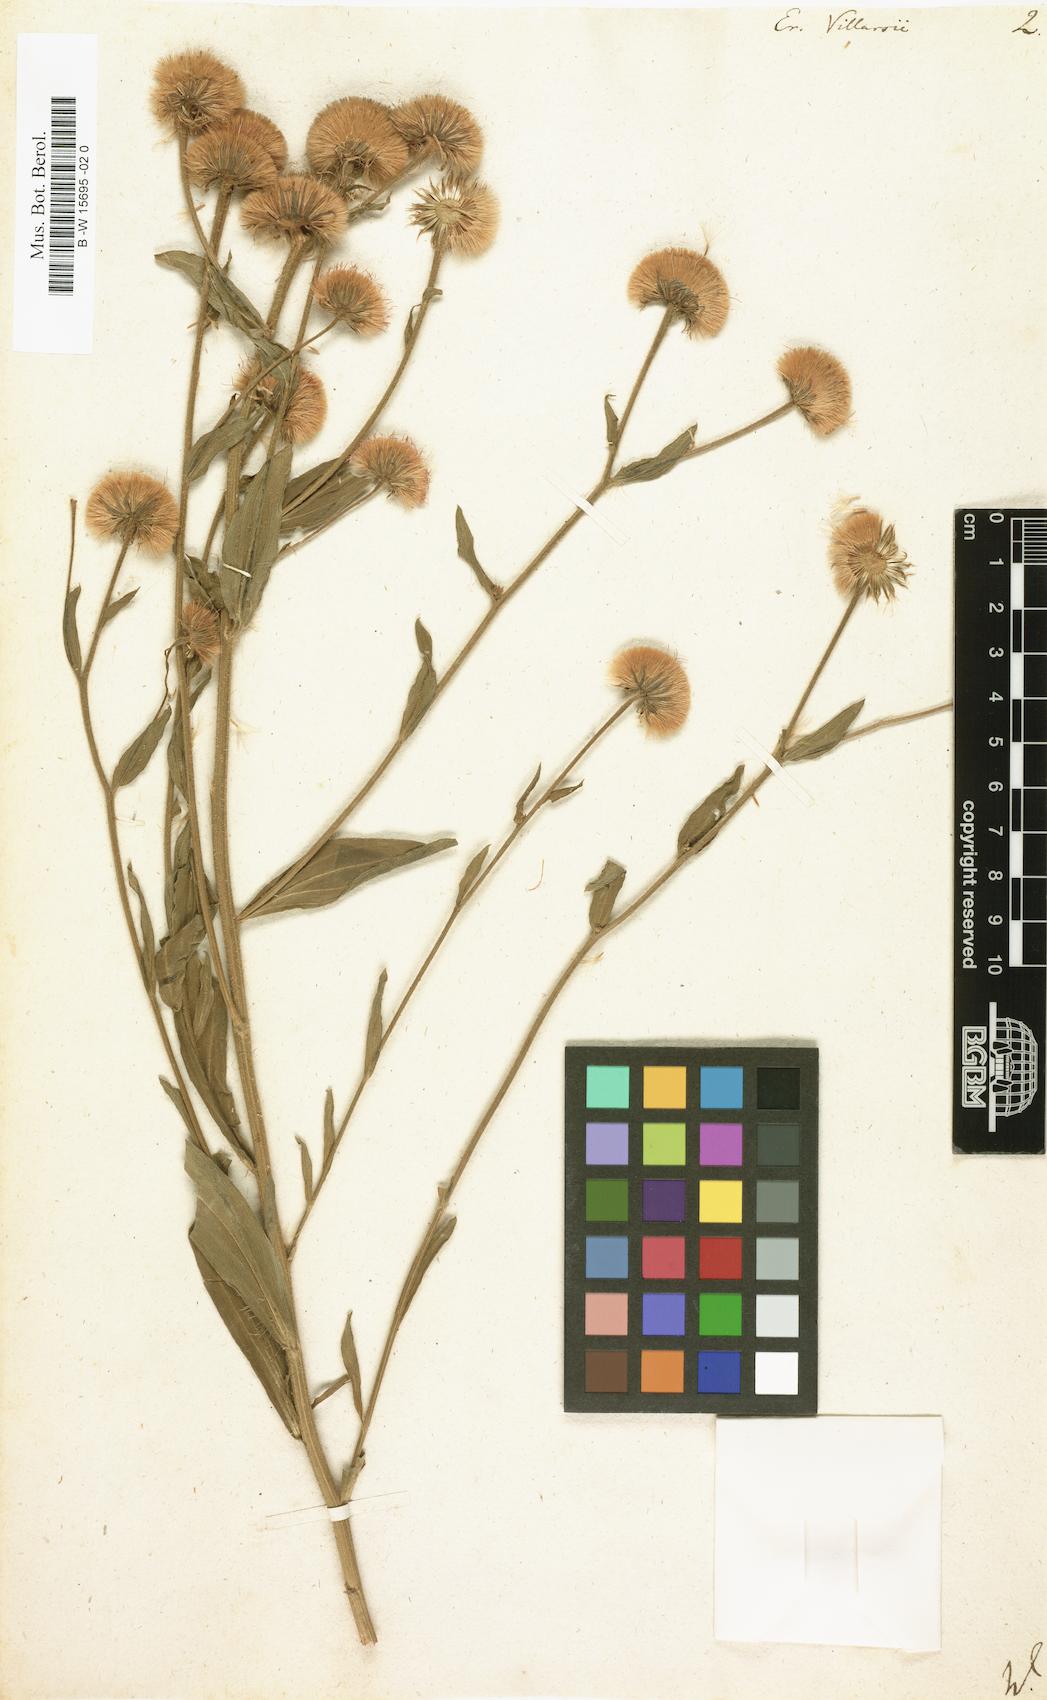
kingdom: Plantae
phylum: Tracheophyta
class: Magnoliopsida
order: Asterales
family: Asteraceae
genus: Erigeron
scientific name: Erigeron atticus
